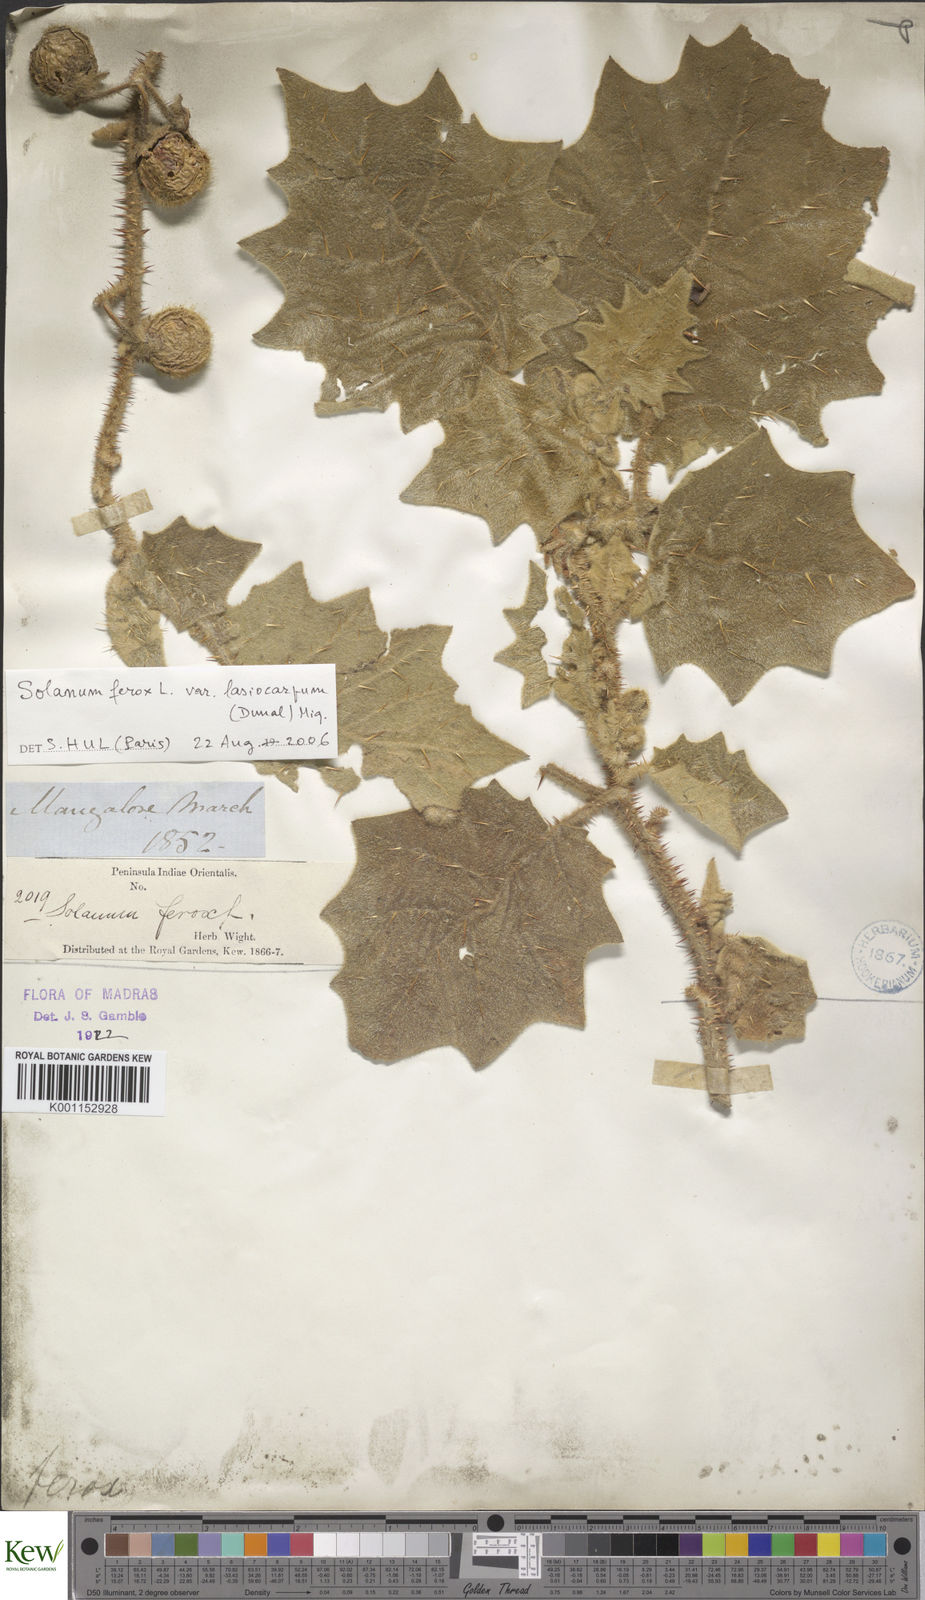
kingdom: Plantae
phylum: Tracheophyta
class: Magnoliopsida
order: Solanales
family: Solanaceae
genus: Solanum
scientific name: Solanum
